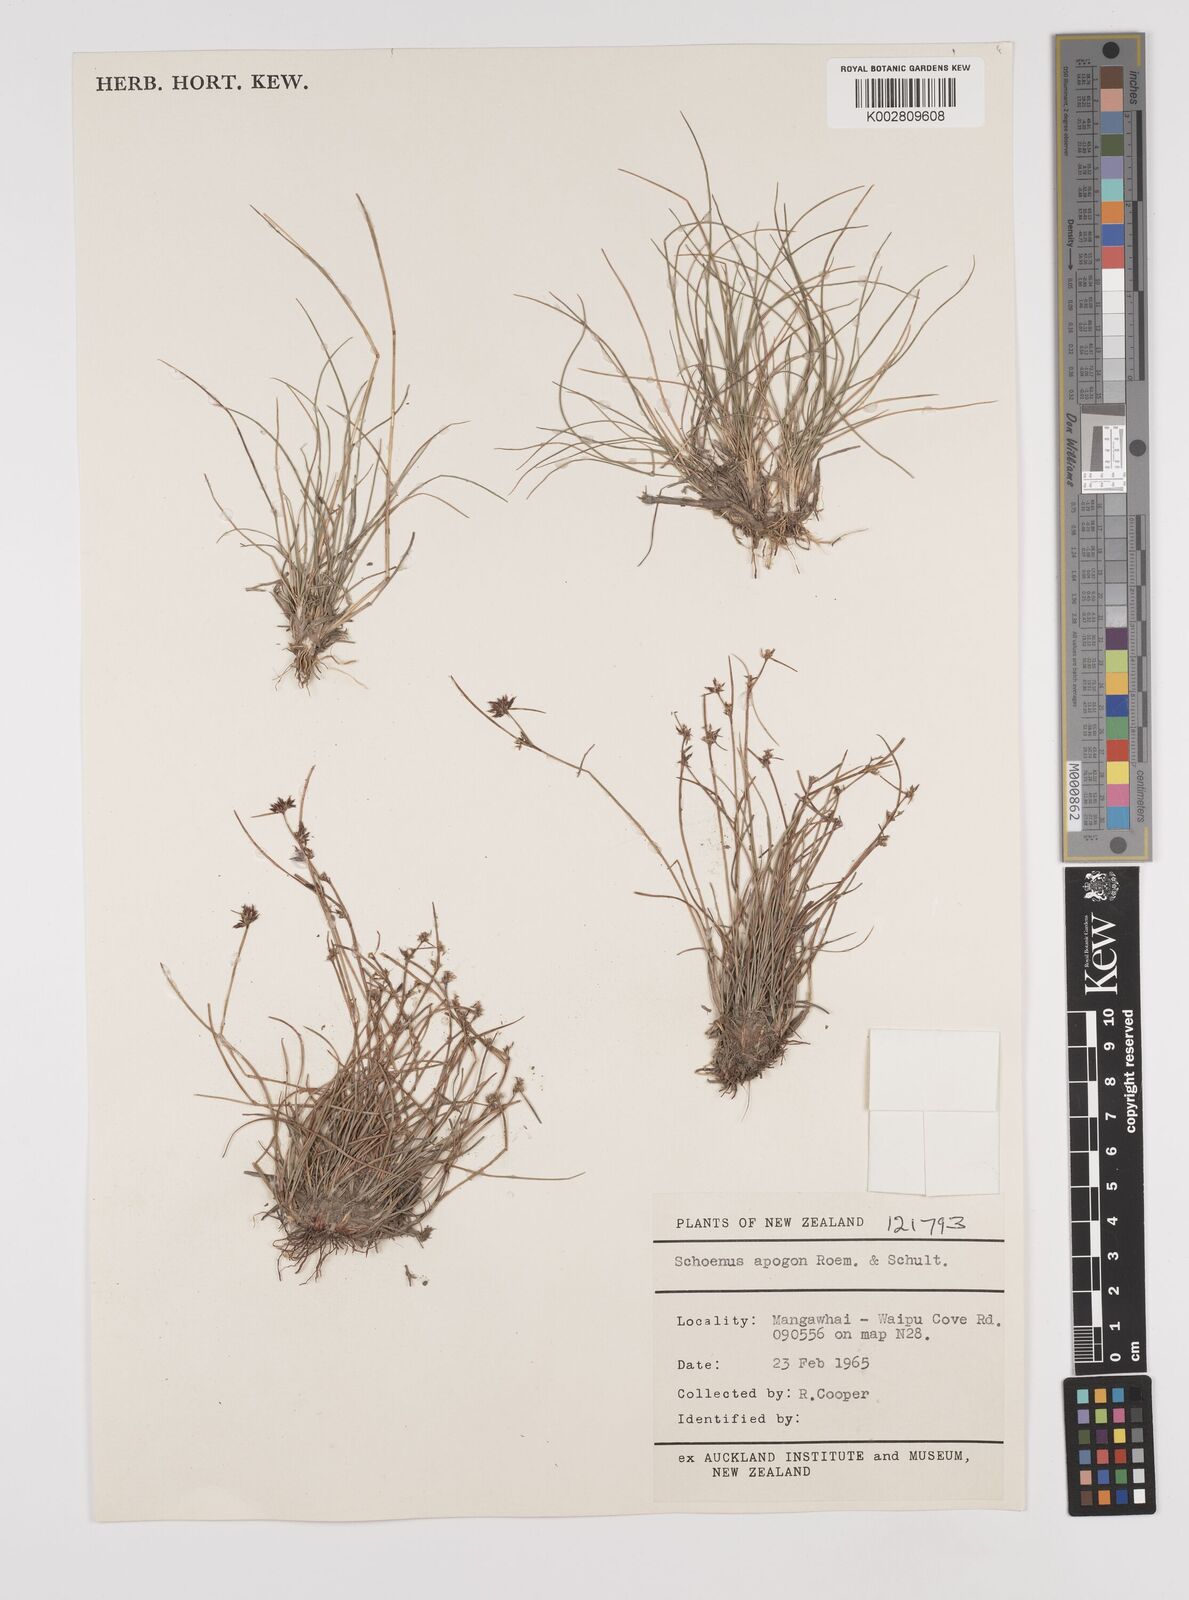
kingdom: Plantae
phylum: Tracheophyta
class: Liliopsida
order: Poales
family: Cyperaceae
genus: Schoenus
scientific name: Schoenus apogon
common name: Smooth bogrush
